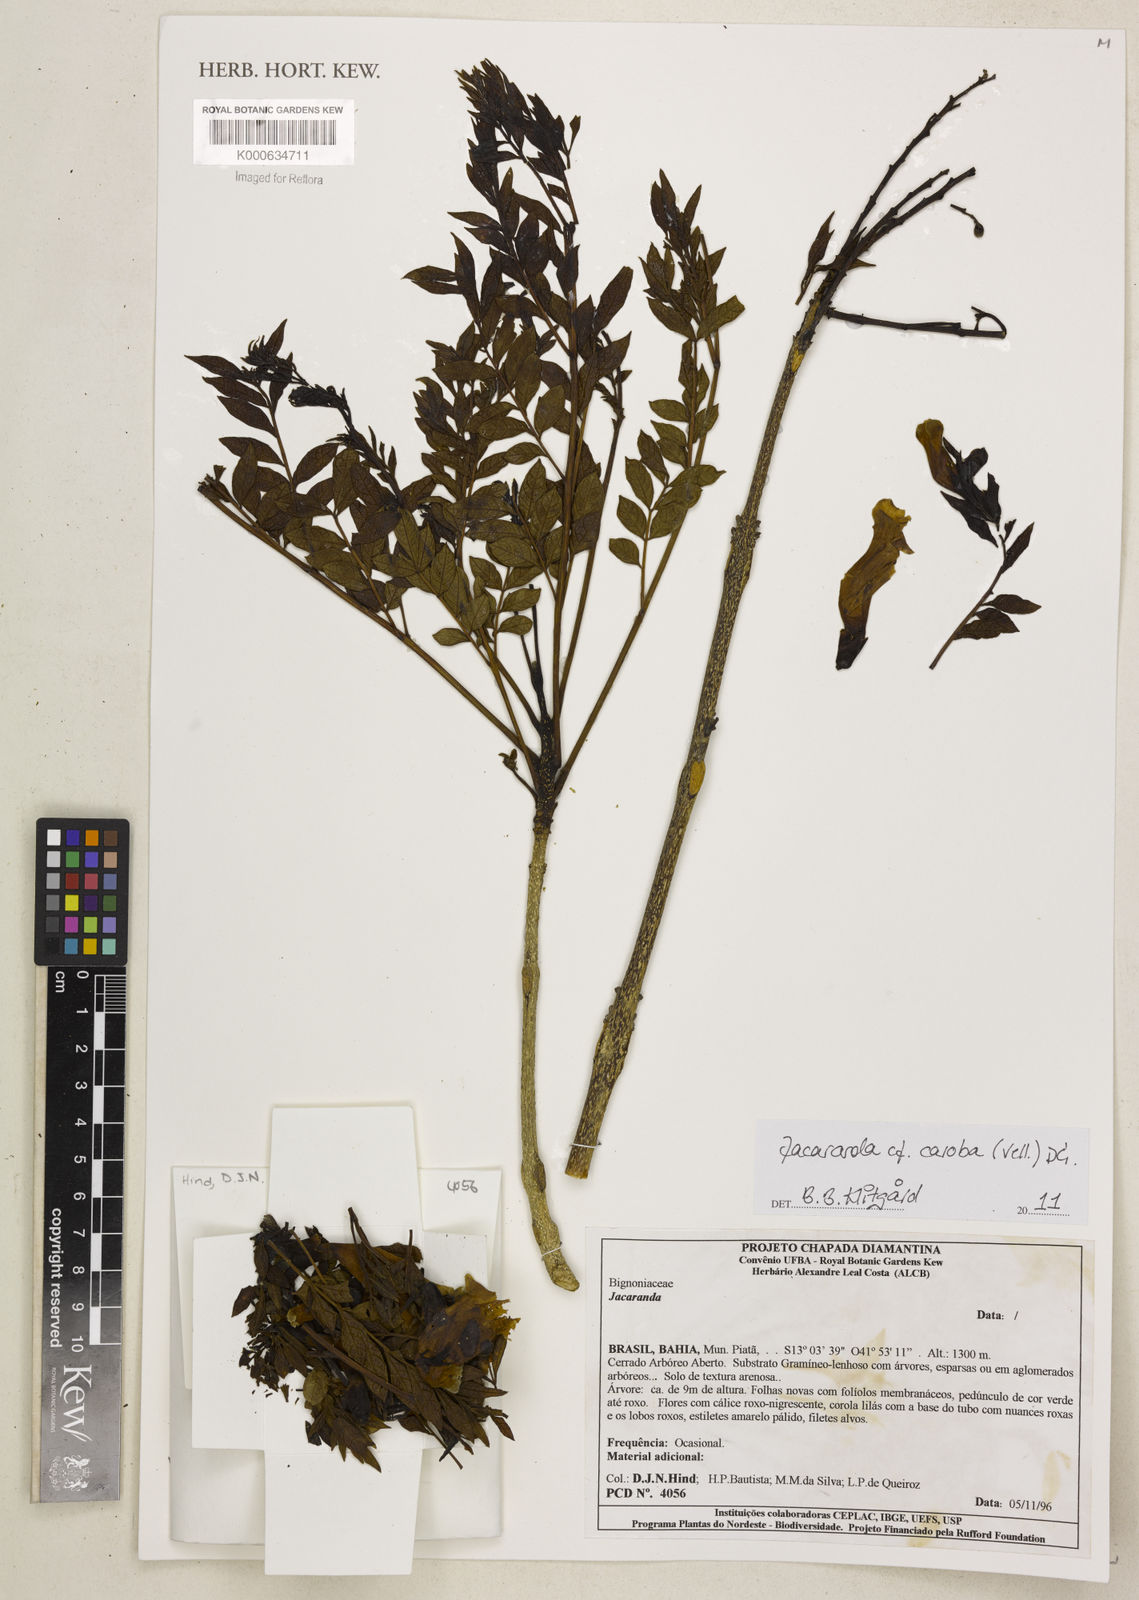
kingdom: Plantae
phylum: Tracheophyta
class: Magnoliopsida
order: Lamiales
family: Bignoniaceae
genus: Jacaranda
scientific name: Jacaranda
